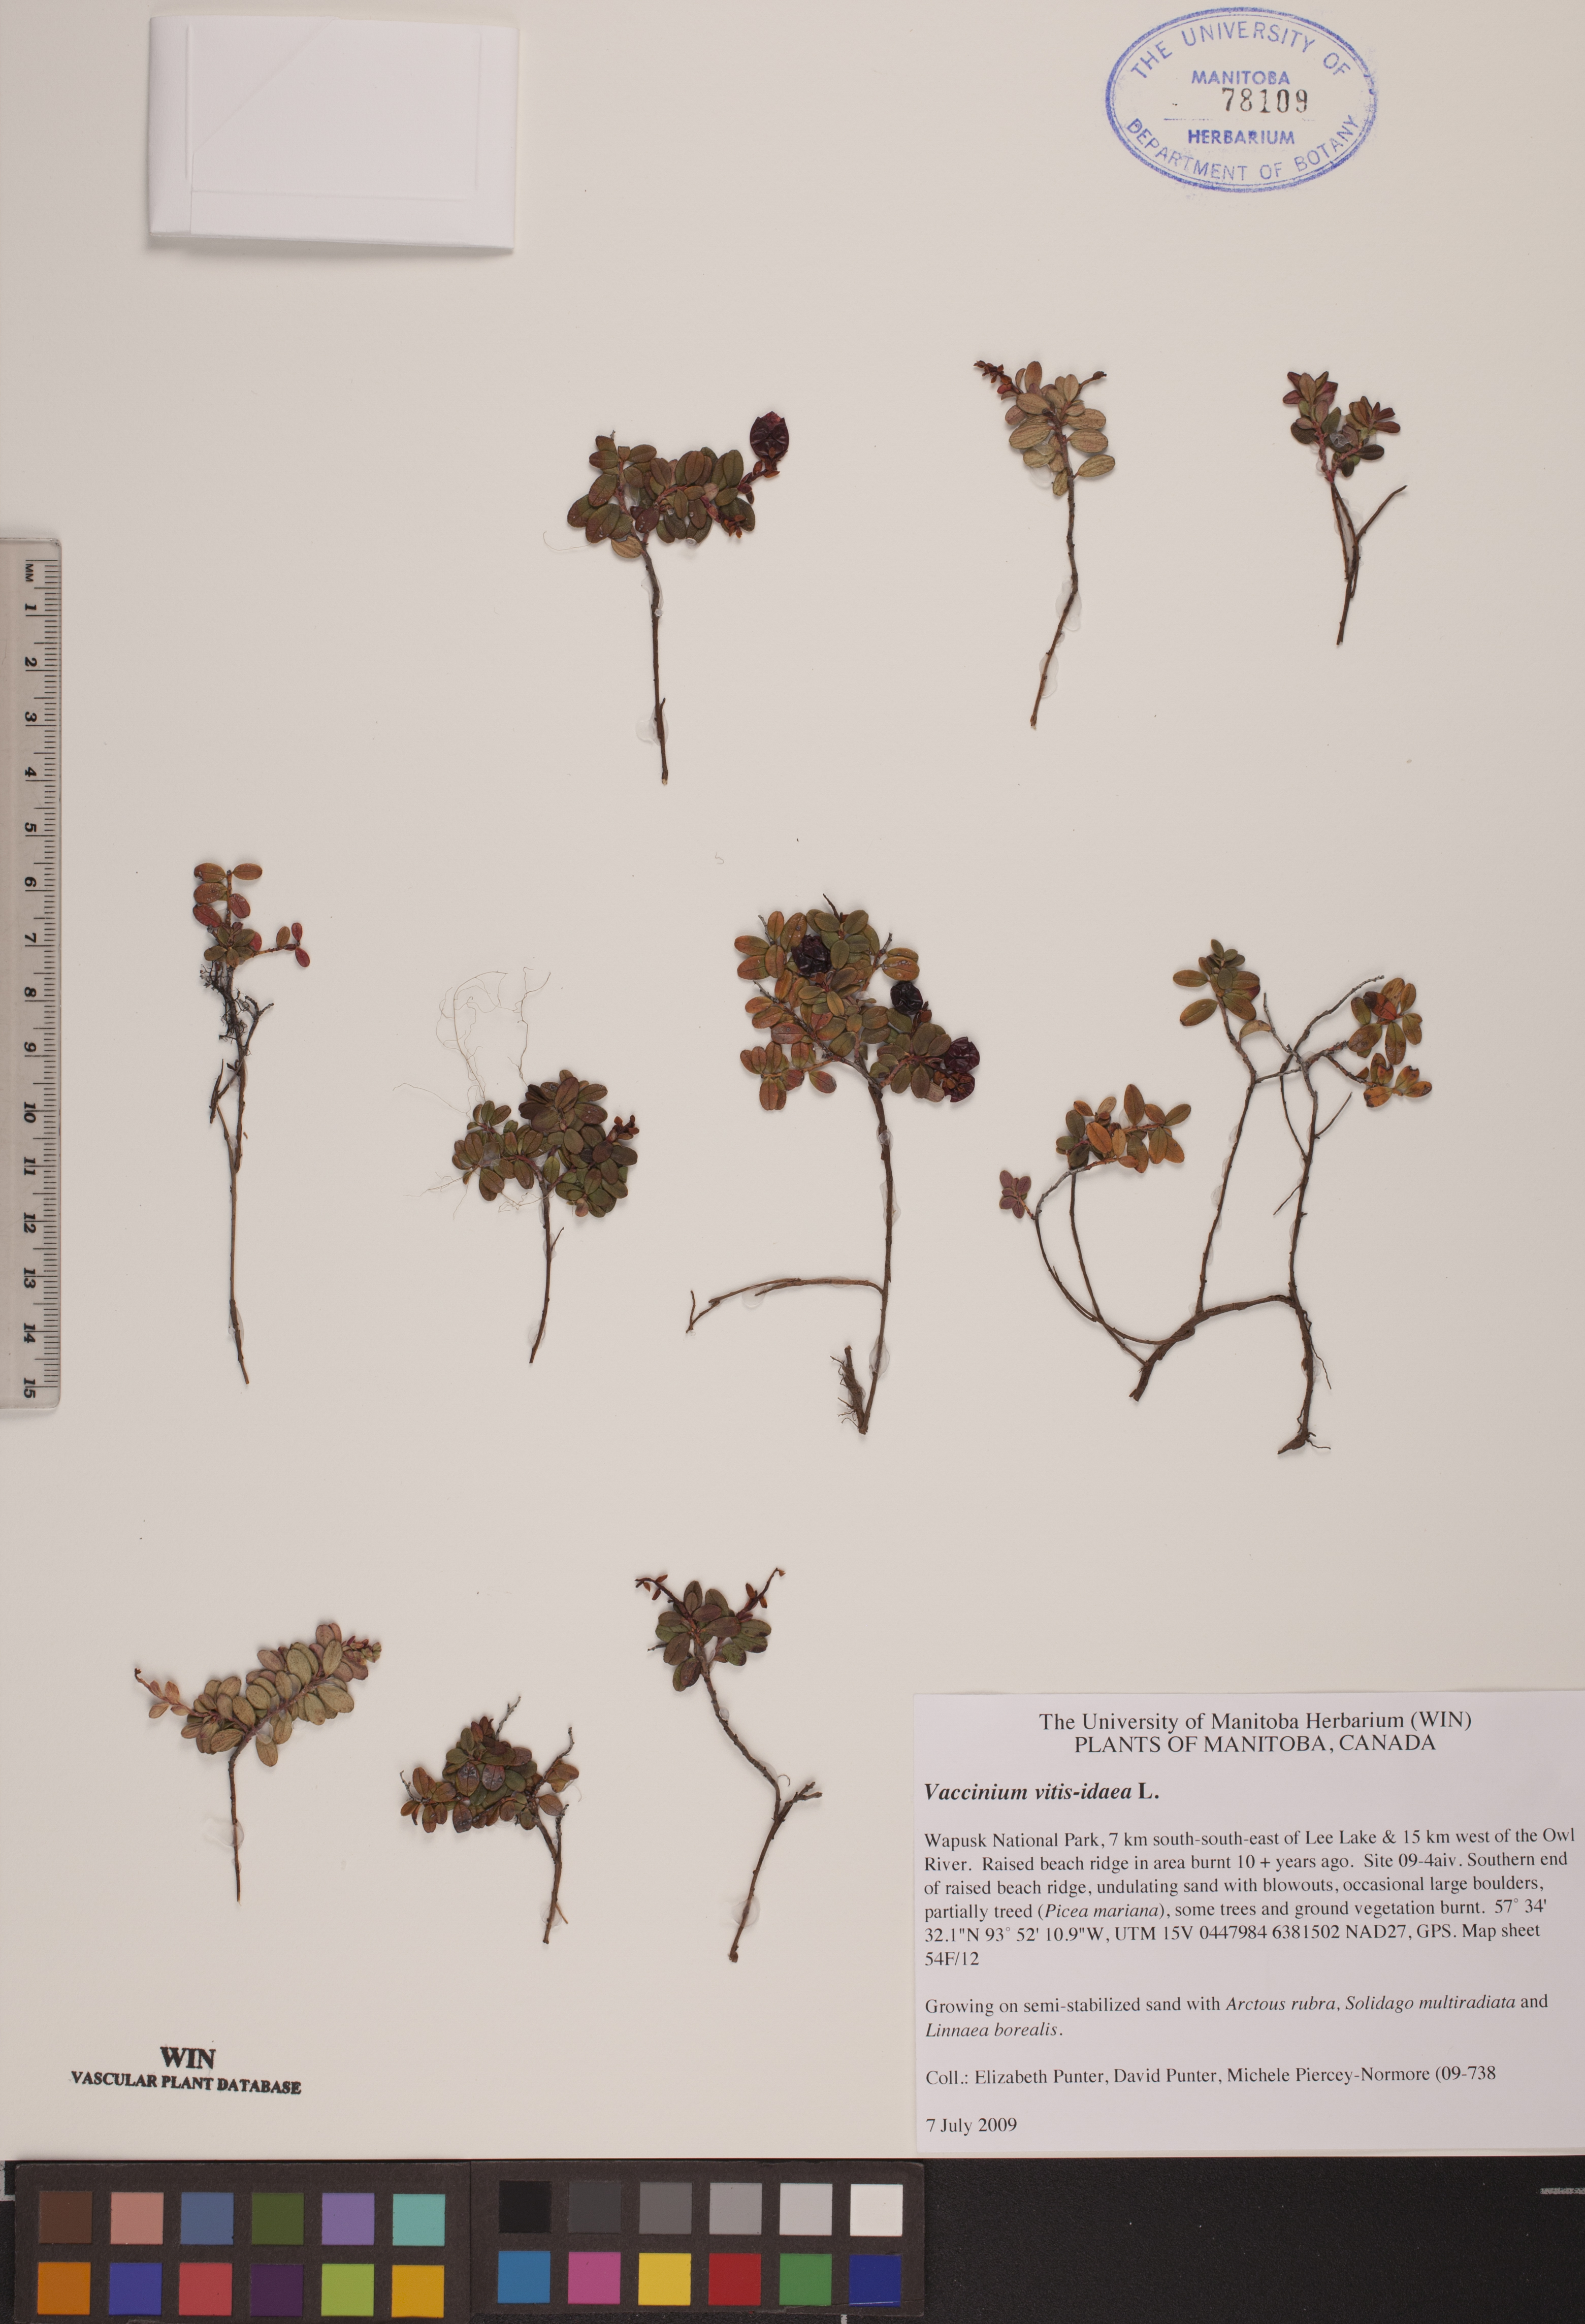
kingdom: Plantae
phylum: Tracheophyta
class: Magnoliopsida
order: Ericales
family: Ericaceae
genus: Vaccinium
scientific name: Vaccinium vitis-idaea
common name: Cowberry
